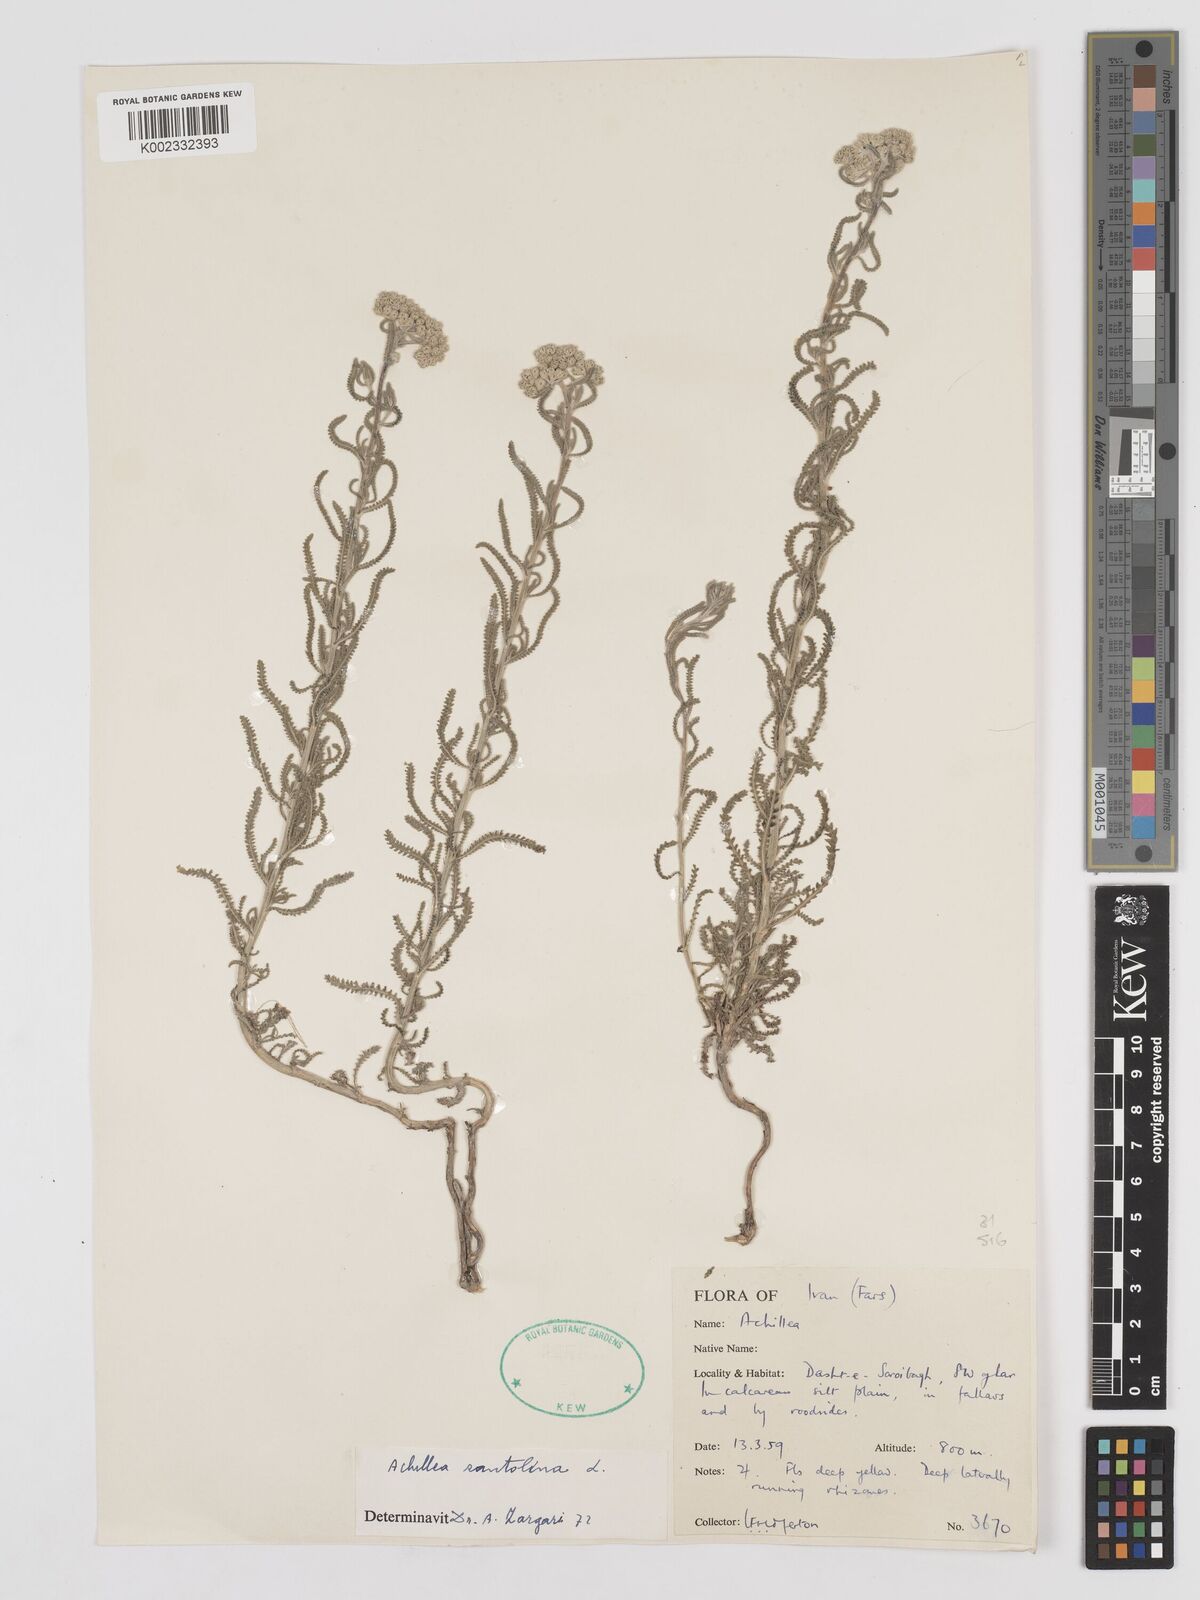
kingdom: Plantae
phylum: Tracheophyta
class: Magnoliopsida
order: Asterales
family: Asteraceae
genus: Achillea
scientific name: Achillea cretica
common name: Chamomile-leaved lavender-cotton
